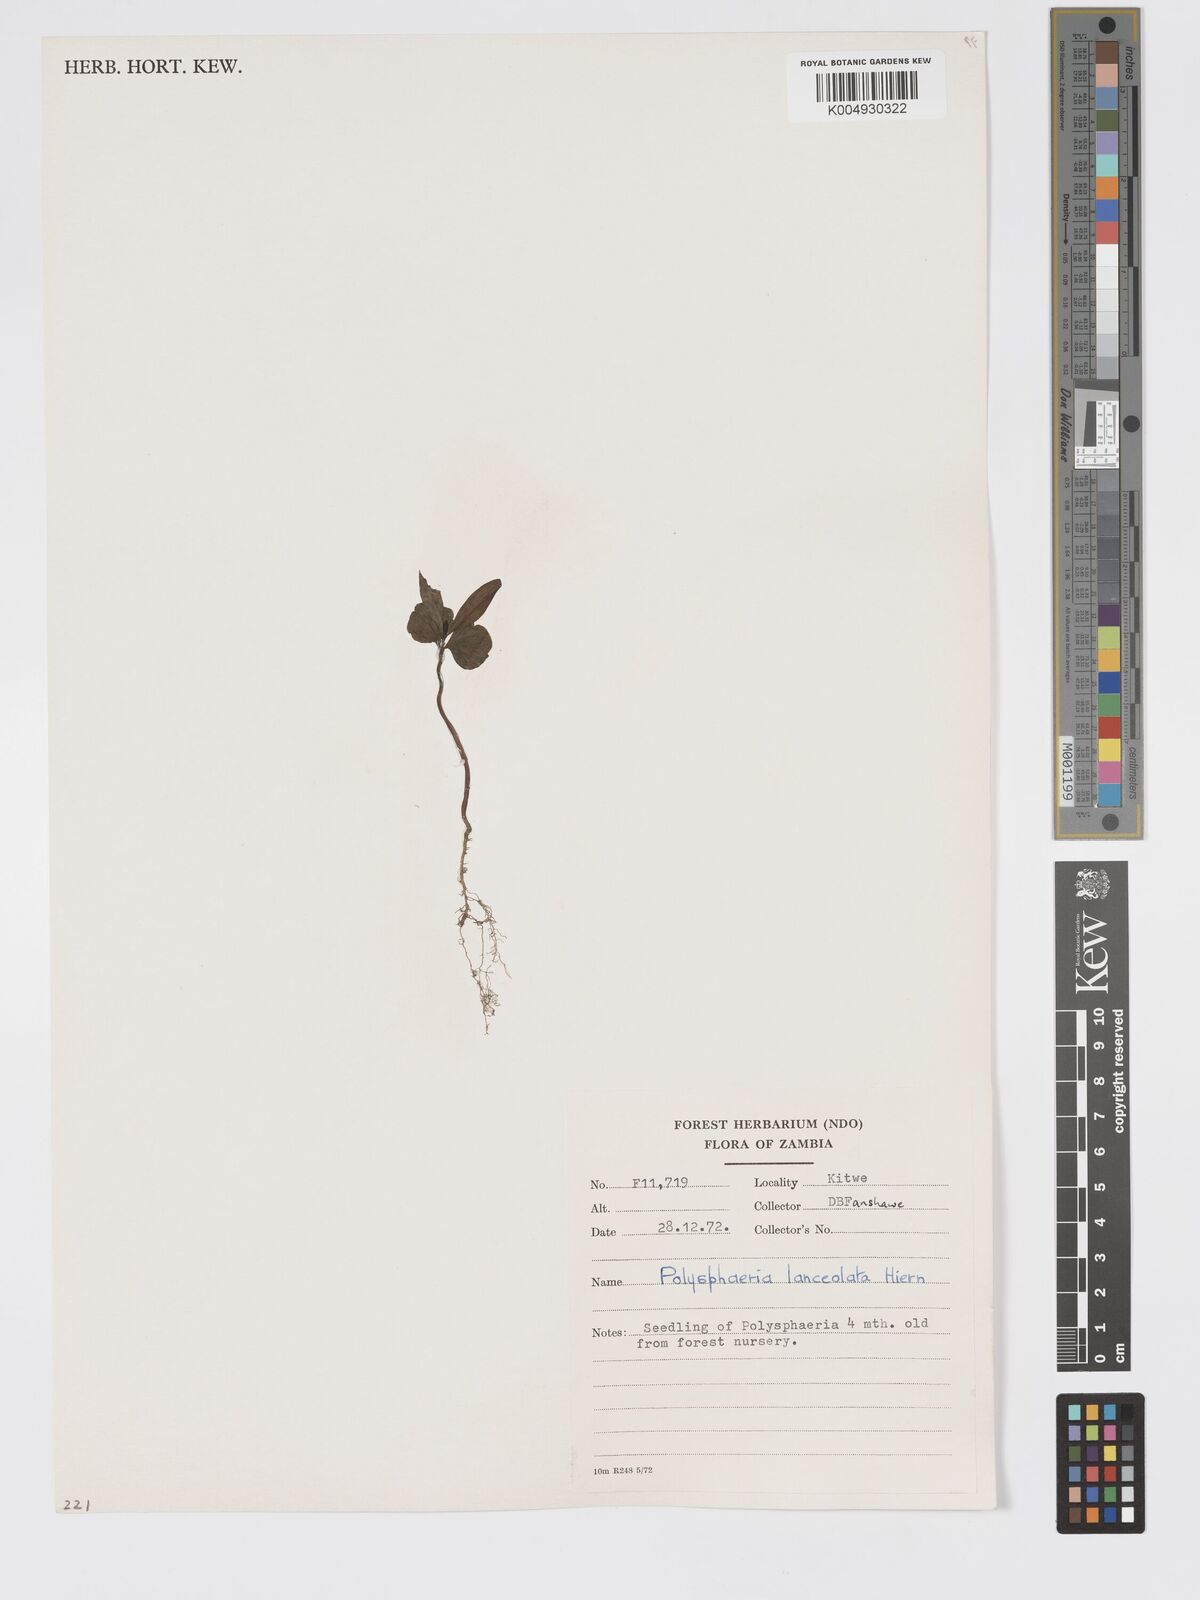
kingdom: Plantae
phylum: Tracheophyta
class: Magnoliopsida
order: Gentianales
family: Rubiaceae
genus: Polysphaeria
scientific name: Polysphaeria pedunculata
